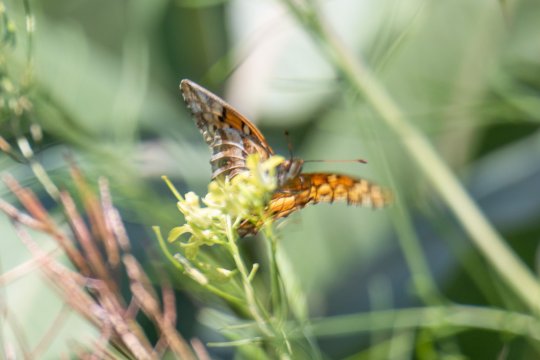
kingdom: Animalia
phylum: Arthropoda
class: Insecta
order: Lepidoptera
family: Nymphalidae
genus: Euptoieta
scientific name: Euptoieta claudia
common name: Variegated Fritillary
